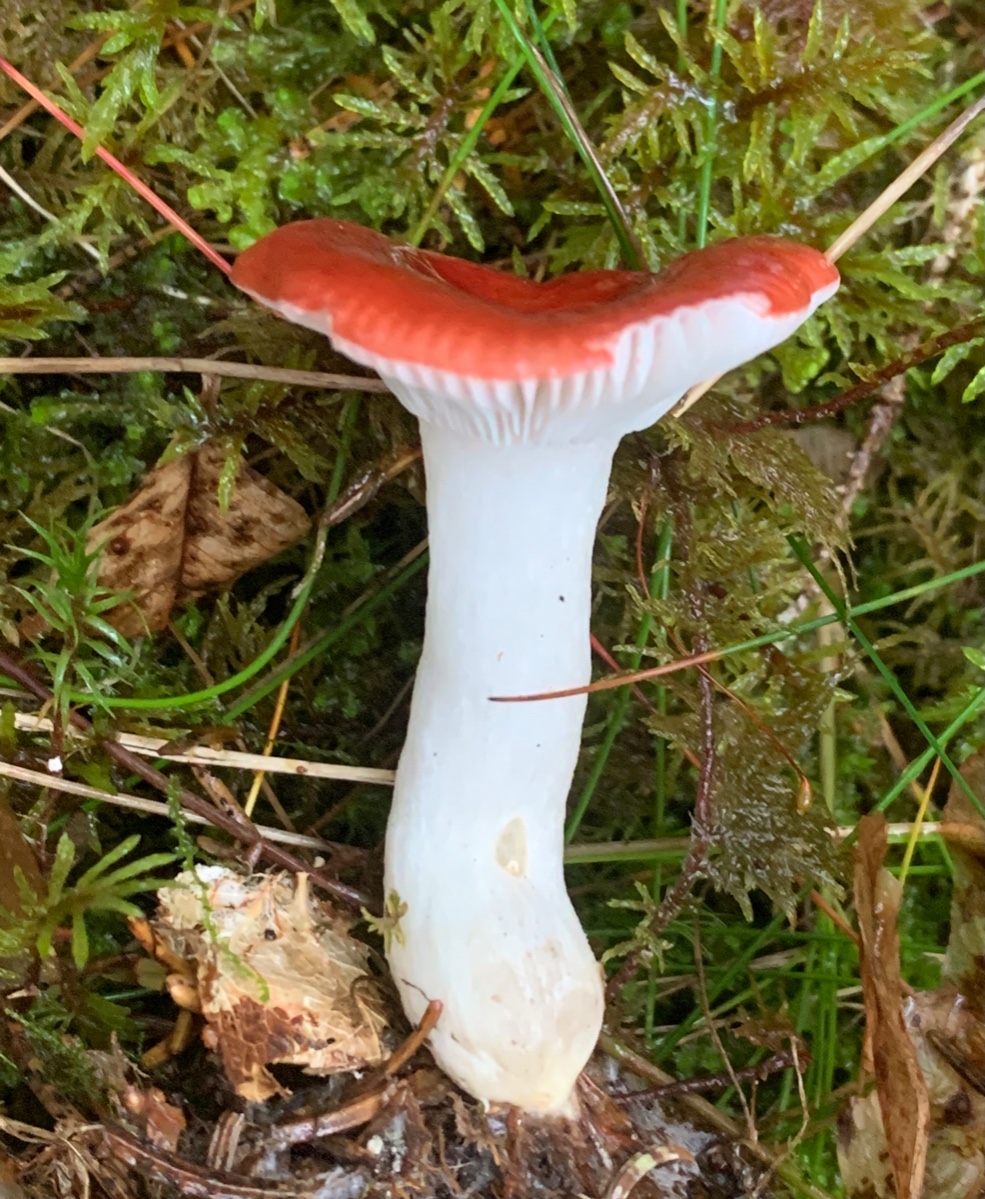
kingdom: Fungi
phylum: Basidiomycota
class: Agaricomycetes
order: Russulales
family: Russulaceae
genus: Russula
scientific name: Russula emetica
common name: stor gift-skørhat
